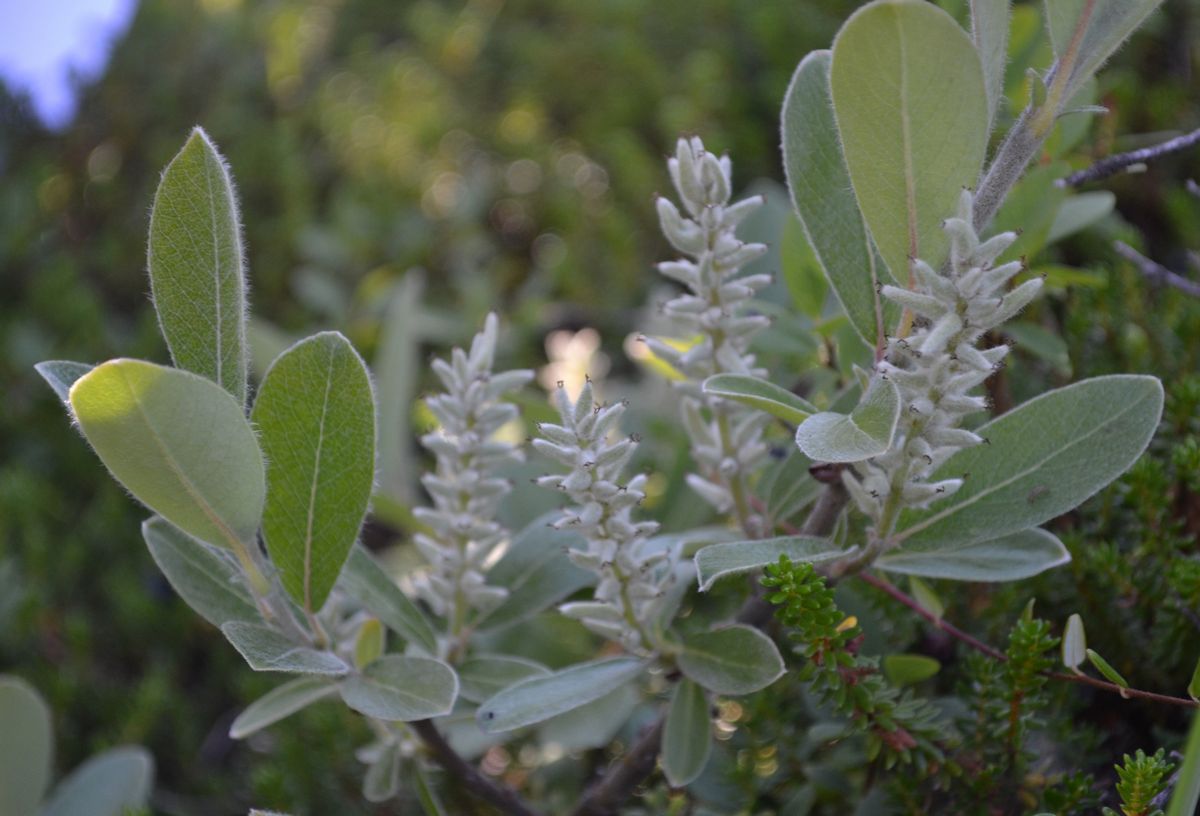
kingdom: Plantae
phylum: Tracheophyta
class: Magnoliopsida
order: Malpighiales
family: Salicaceae
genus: Salix
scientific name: Salix lapponum
